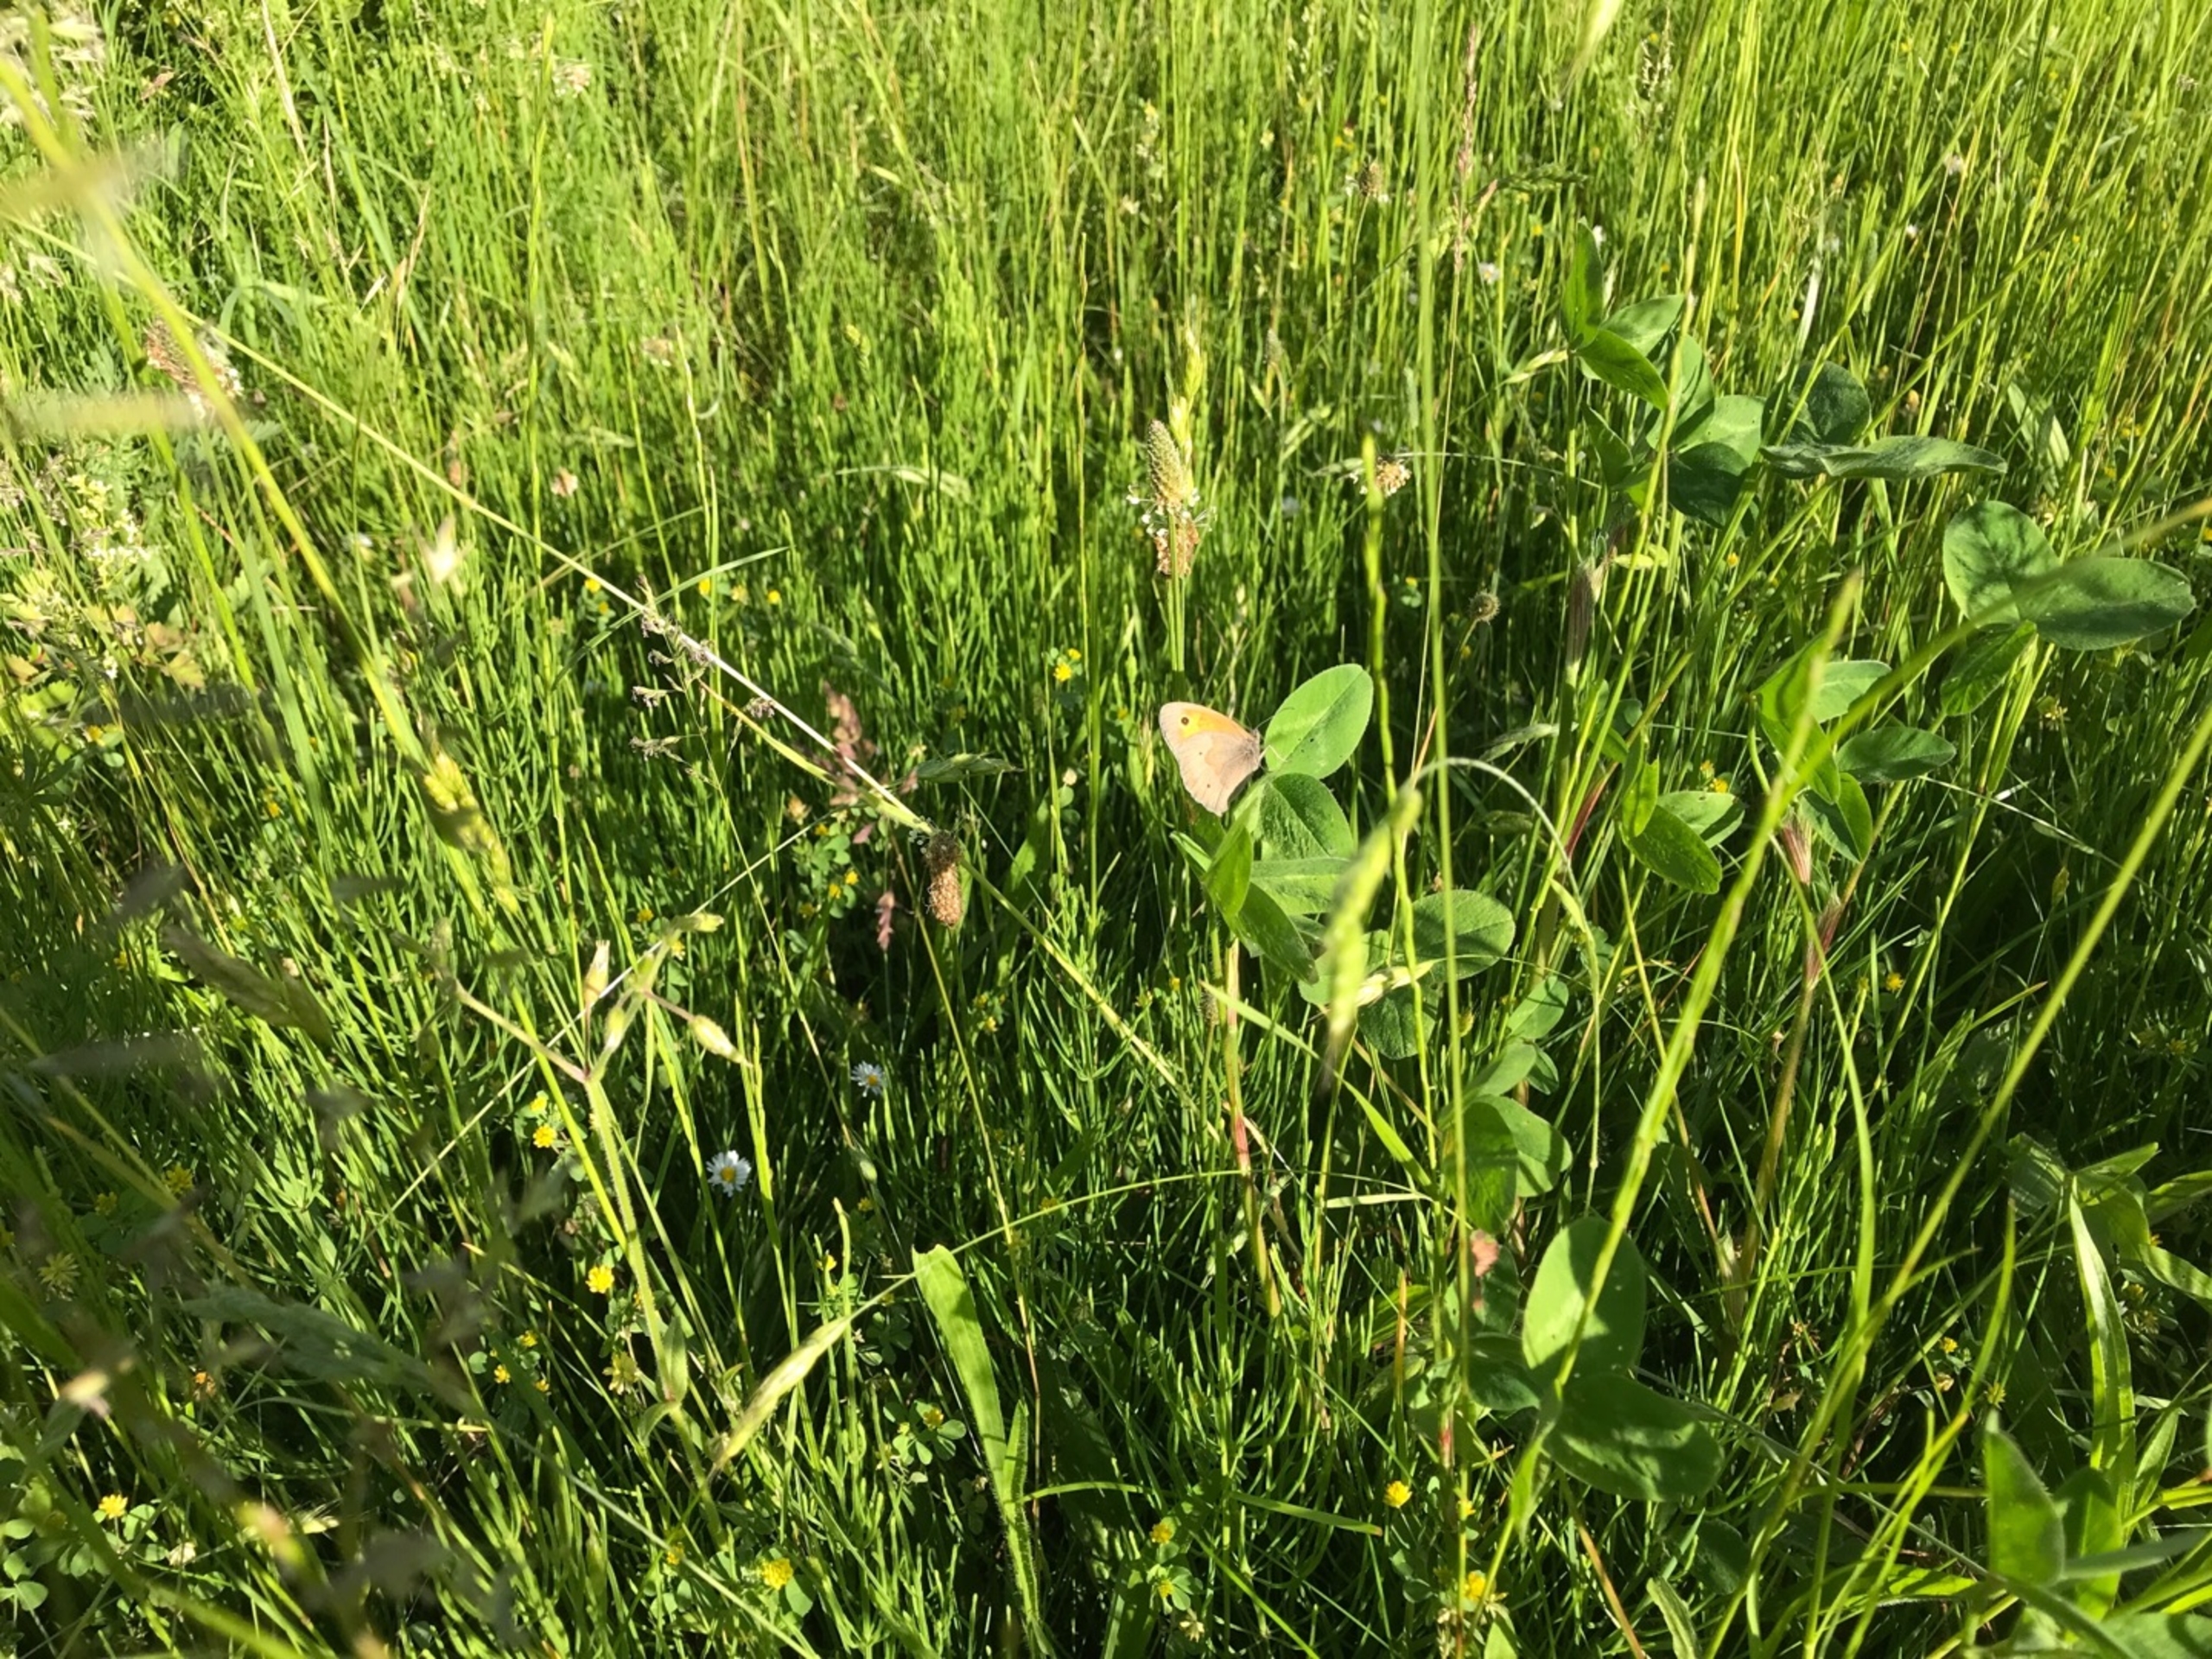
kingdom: Animalia
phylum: Arthropoda
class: Insecta
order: Lepidoptera
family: Nymphalidae
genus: Maniola
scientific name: Maniola jurtina
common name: Græsrandøje
